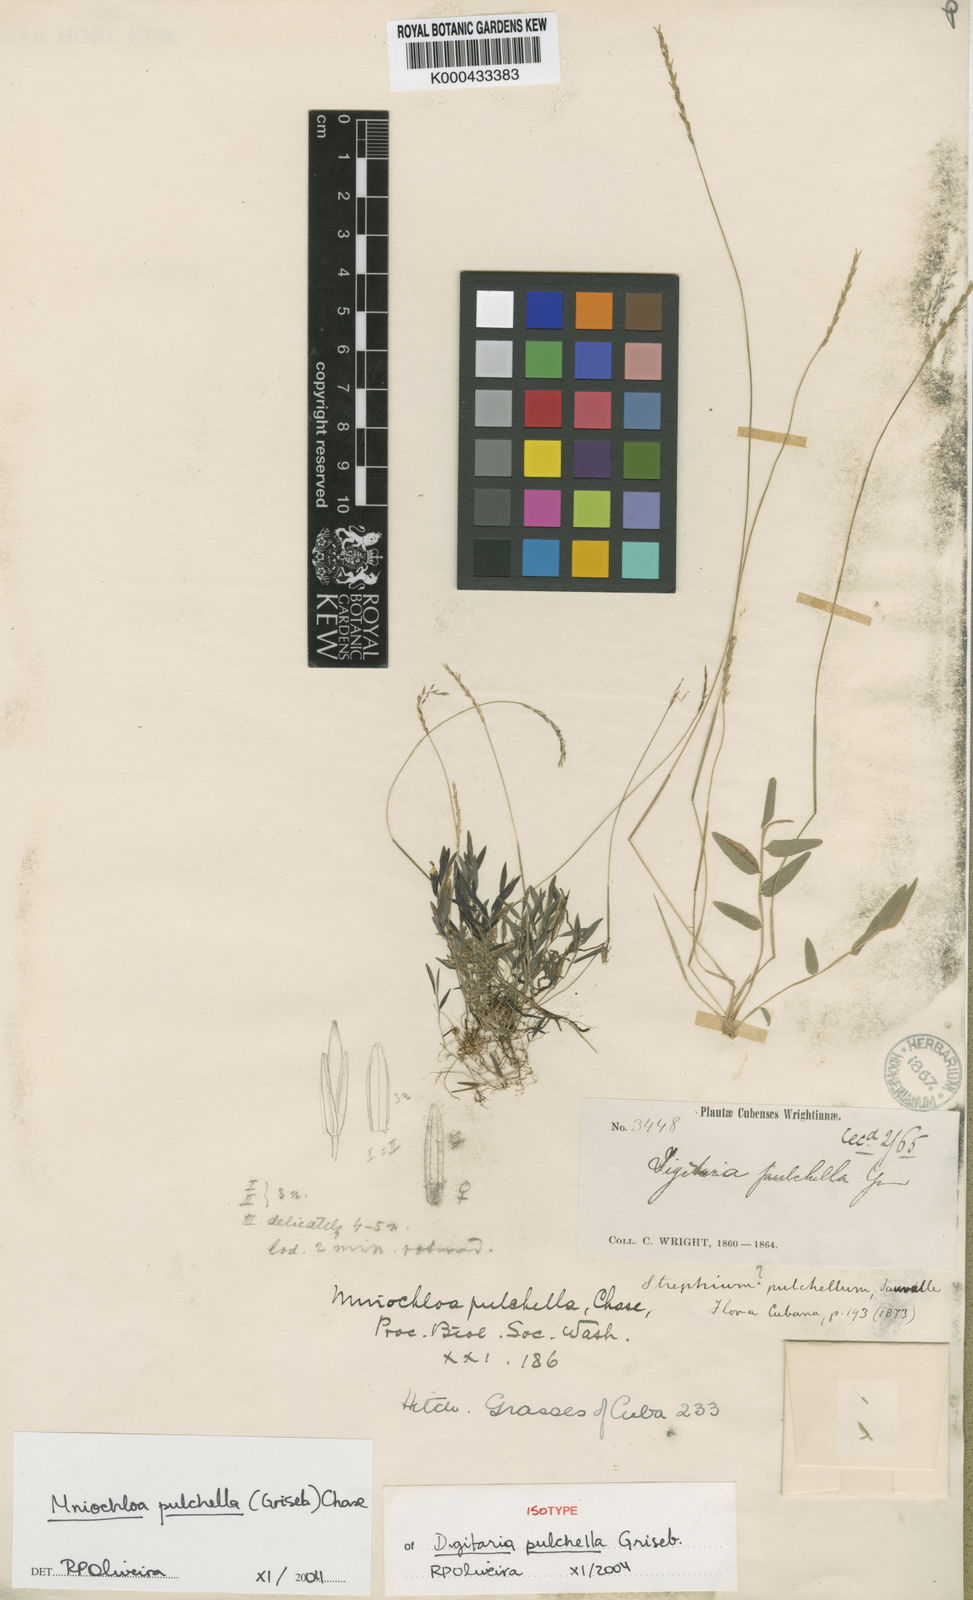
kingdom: Plantae
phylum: Tracheophyta
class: Liliopsida
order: Poales
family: Poaceae
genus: Mniochloa
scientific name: Mniochloa pulchella
